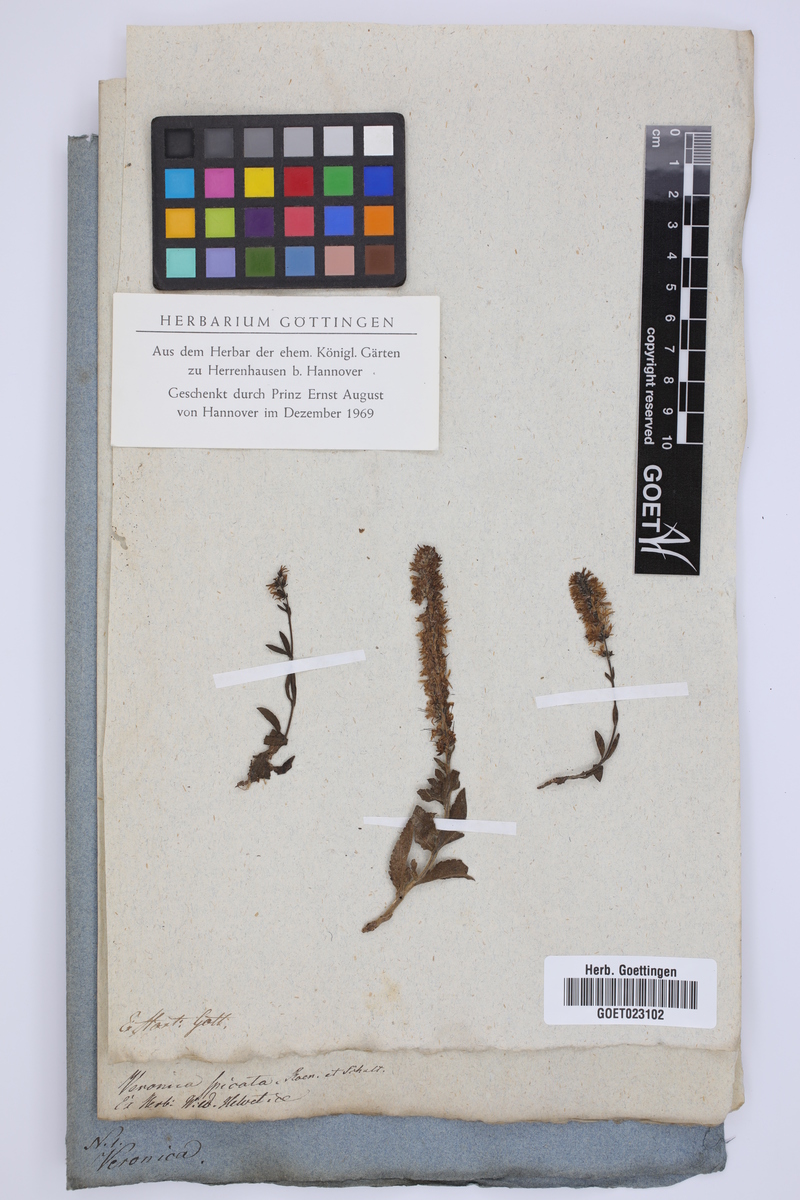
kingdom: Plantae
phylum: Tracheophyta
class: Magnoliopsida
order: Lamiales
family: Plantaginaceae
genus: Veronica
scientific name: Veronica spicata
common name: Spiked speedwell
